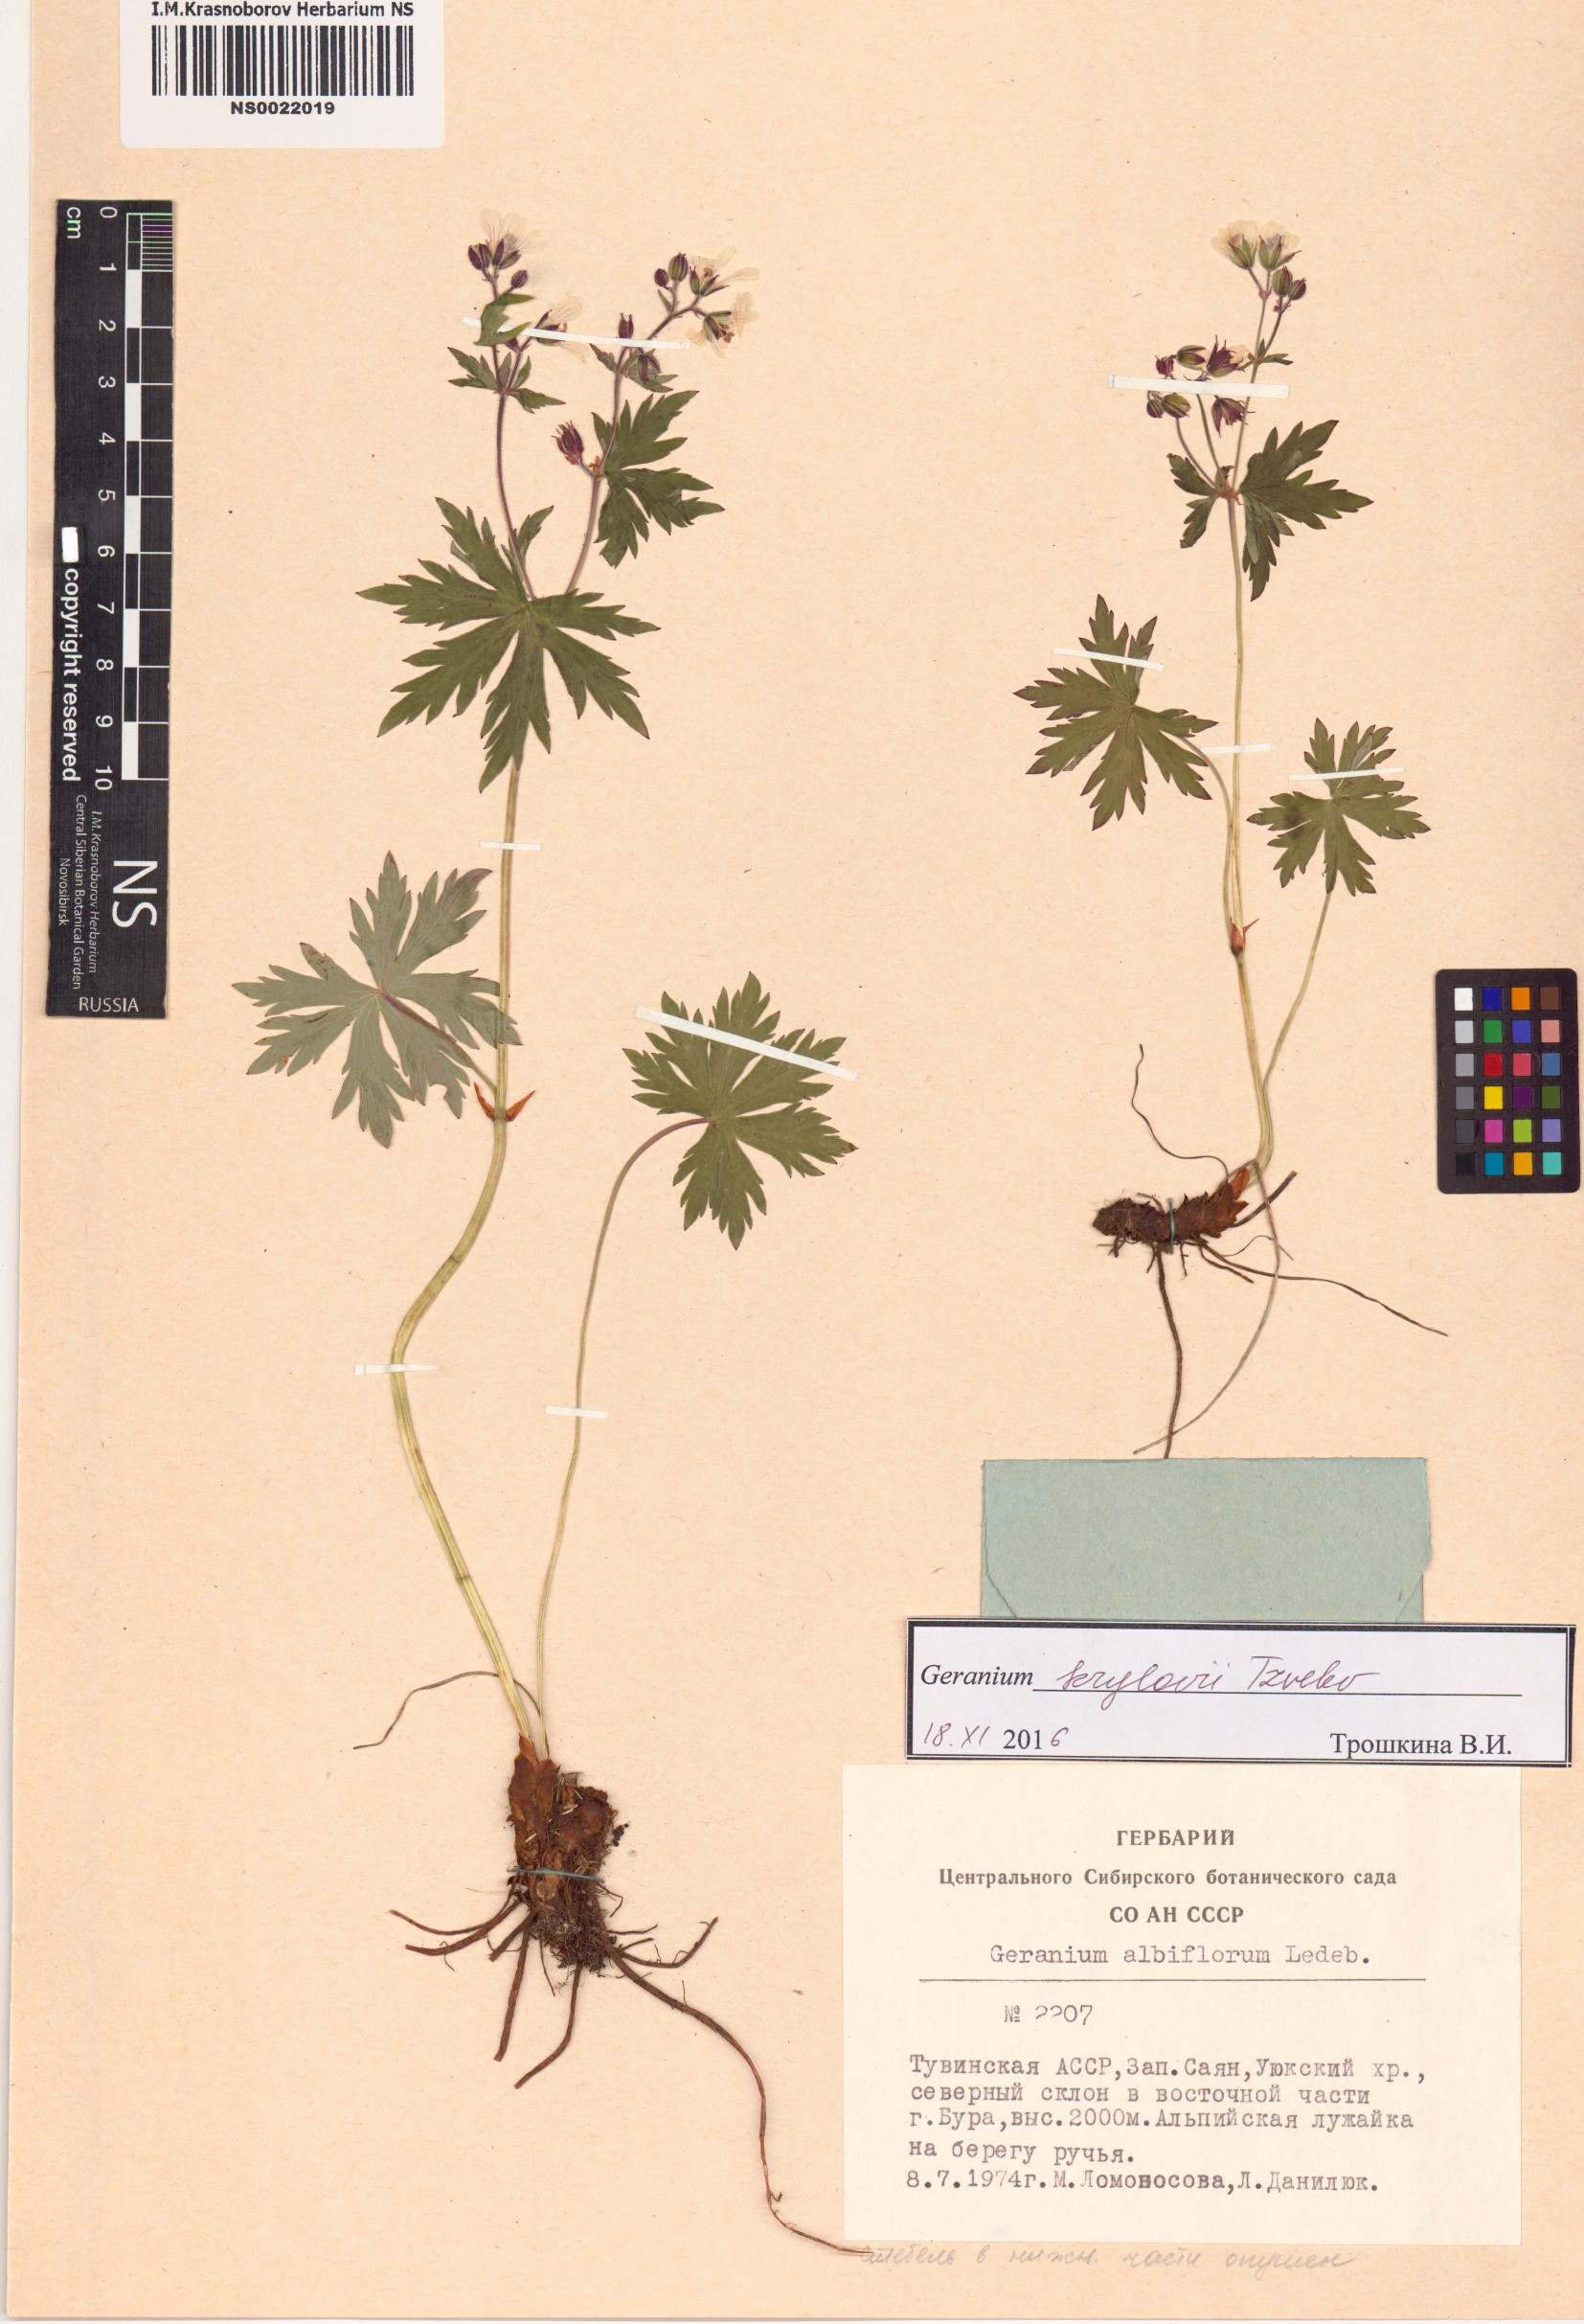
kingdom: Plantae
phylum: Tracheophyta
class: Magnoliopsida
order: Geraniales
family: Geraniaceae
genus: Geranium
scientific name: Geranium sylvaticum
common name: Wood crane's-bill
